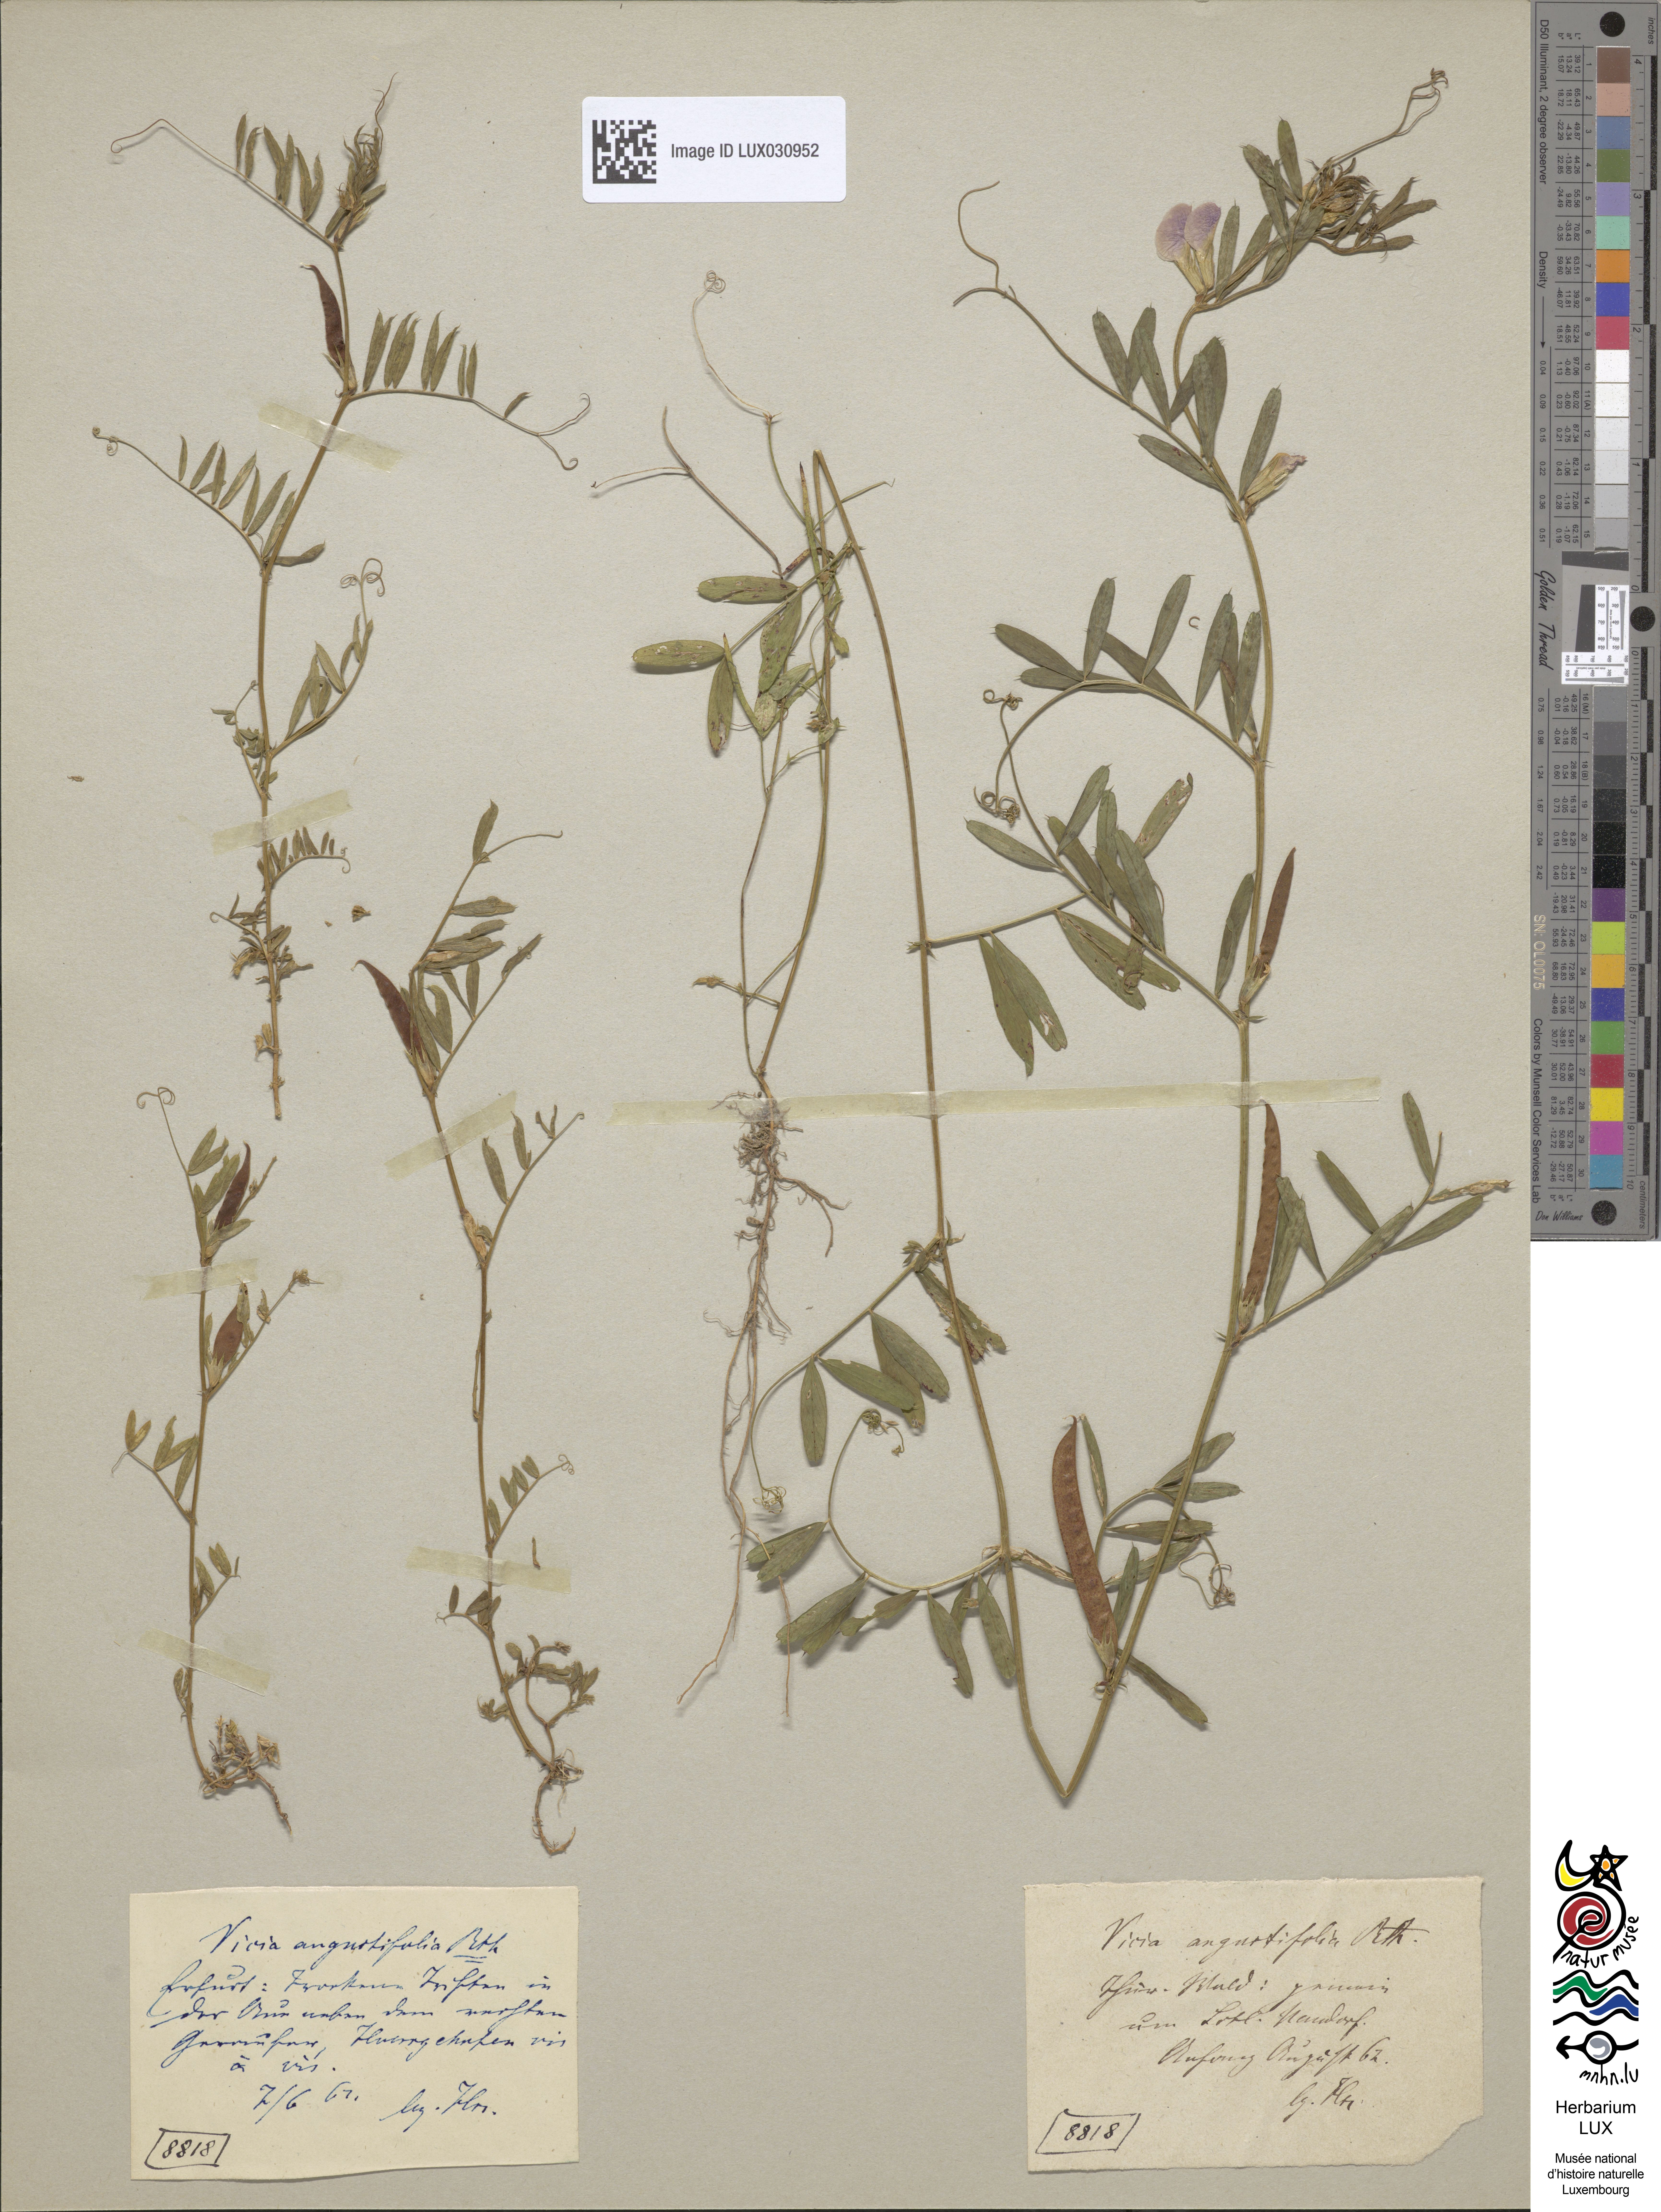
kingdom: Plantae
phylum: Tracheophyta
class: Magnoliopsida
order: Fabales
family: Fabaceae
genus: Vicia
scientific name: Vicia sativa
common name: Garden vetch
